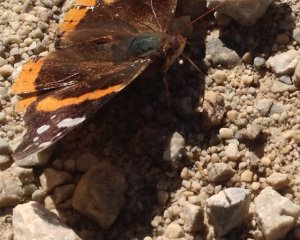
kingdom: Animalia
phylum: Arthropoda
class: Insecta
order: Lepidoptera
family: Nymphalidae
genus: Vanessa
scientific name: Vanessa atalanta
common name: Red Admiral
